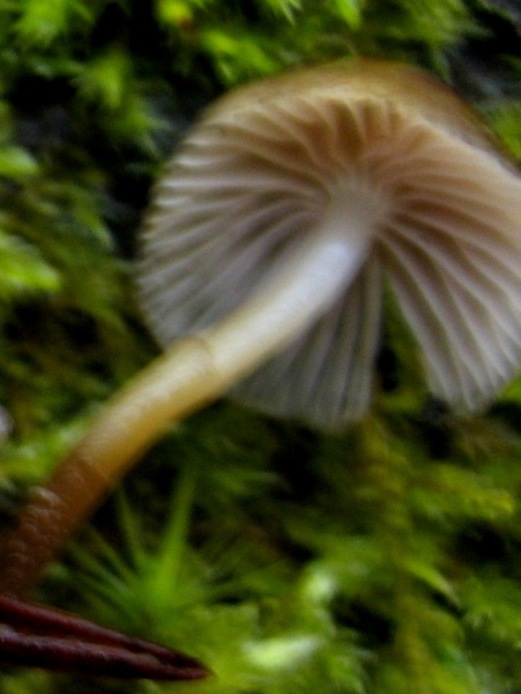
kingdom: Fungi
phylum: Basidiomycota
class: Agaricomycetes
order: Agaricales
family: Mycenaceae
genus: Mycena
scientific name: Mycena tintinnabulum
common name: vinter-huesvamp
